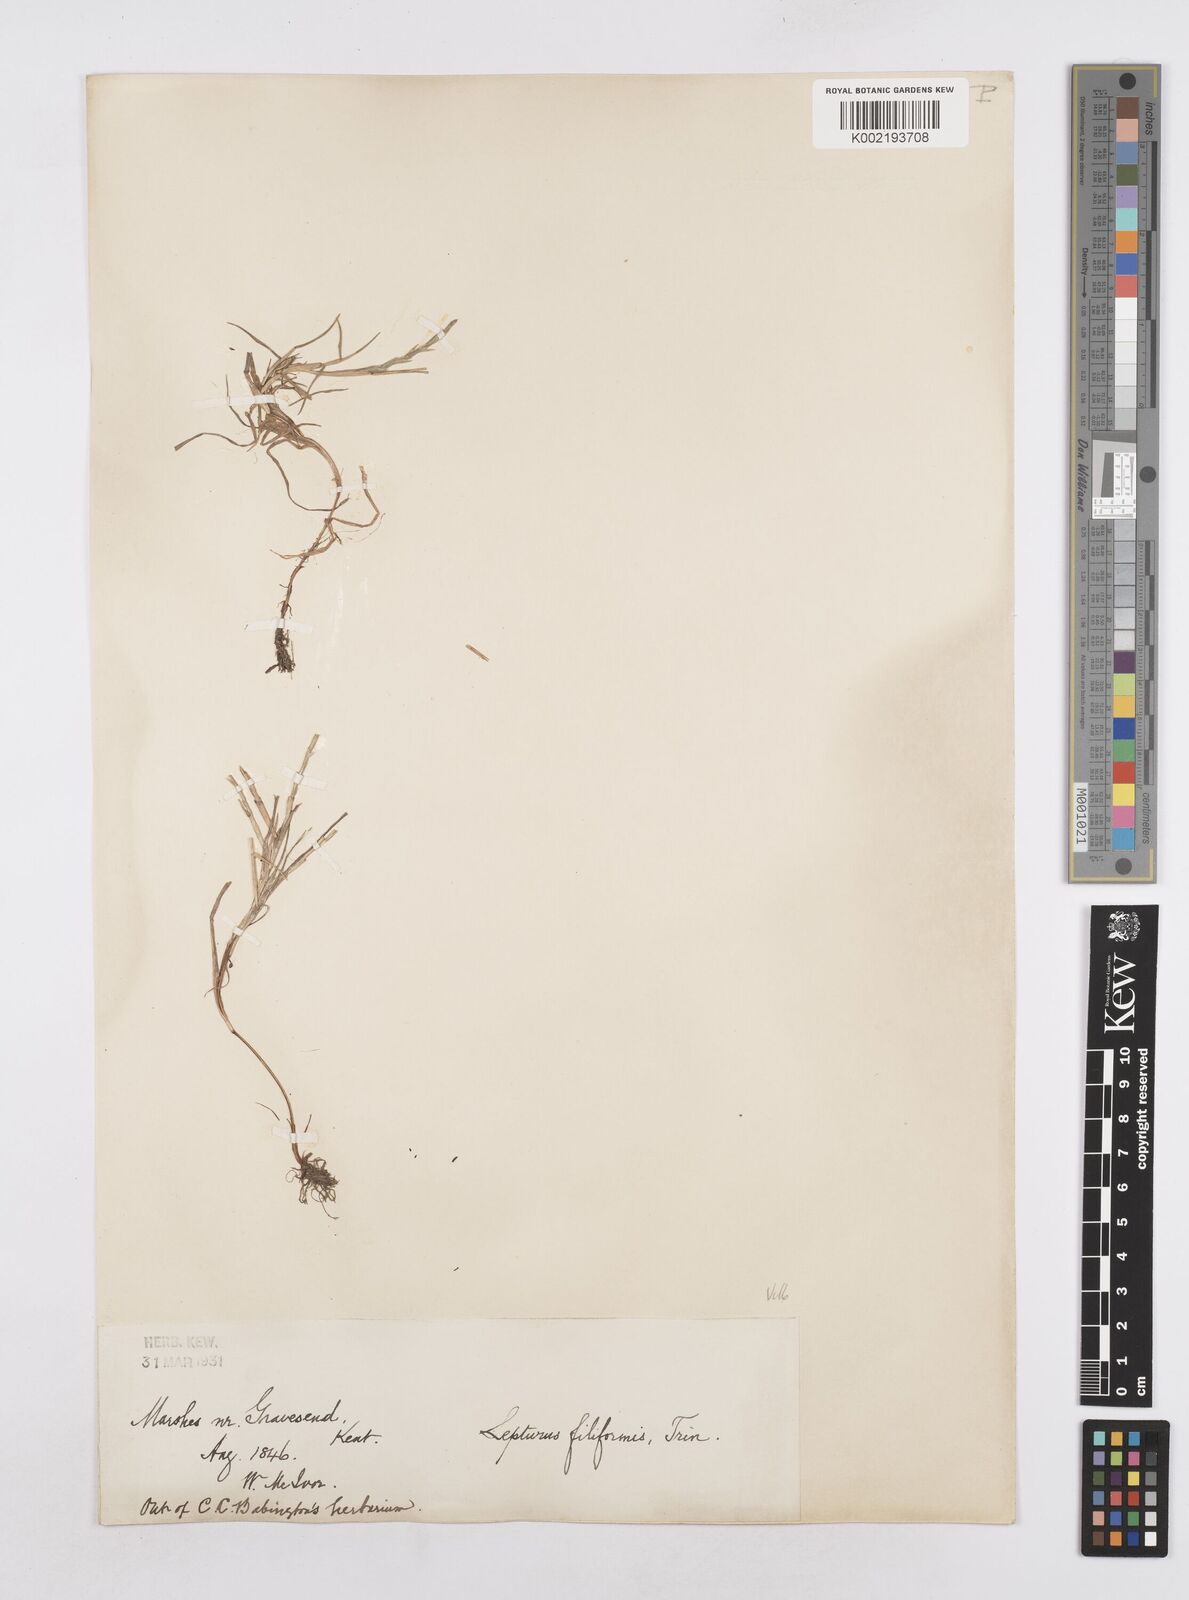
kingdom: Plantae
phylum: Tracheophyta
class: Liliopsida
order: Poales
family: Poaceae
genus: Parapholis
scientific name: Parapholis strigosa
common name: Hard-grass
